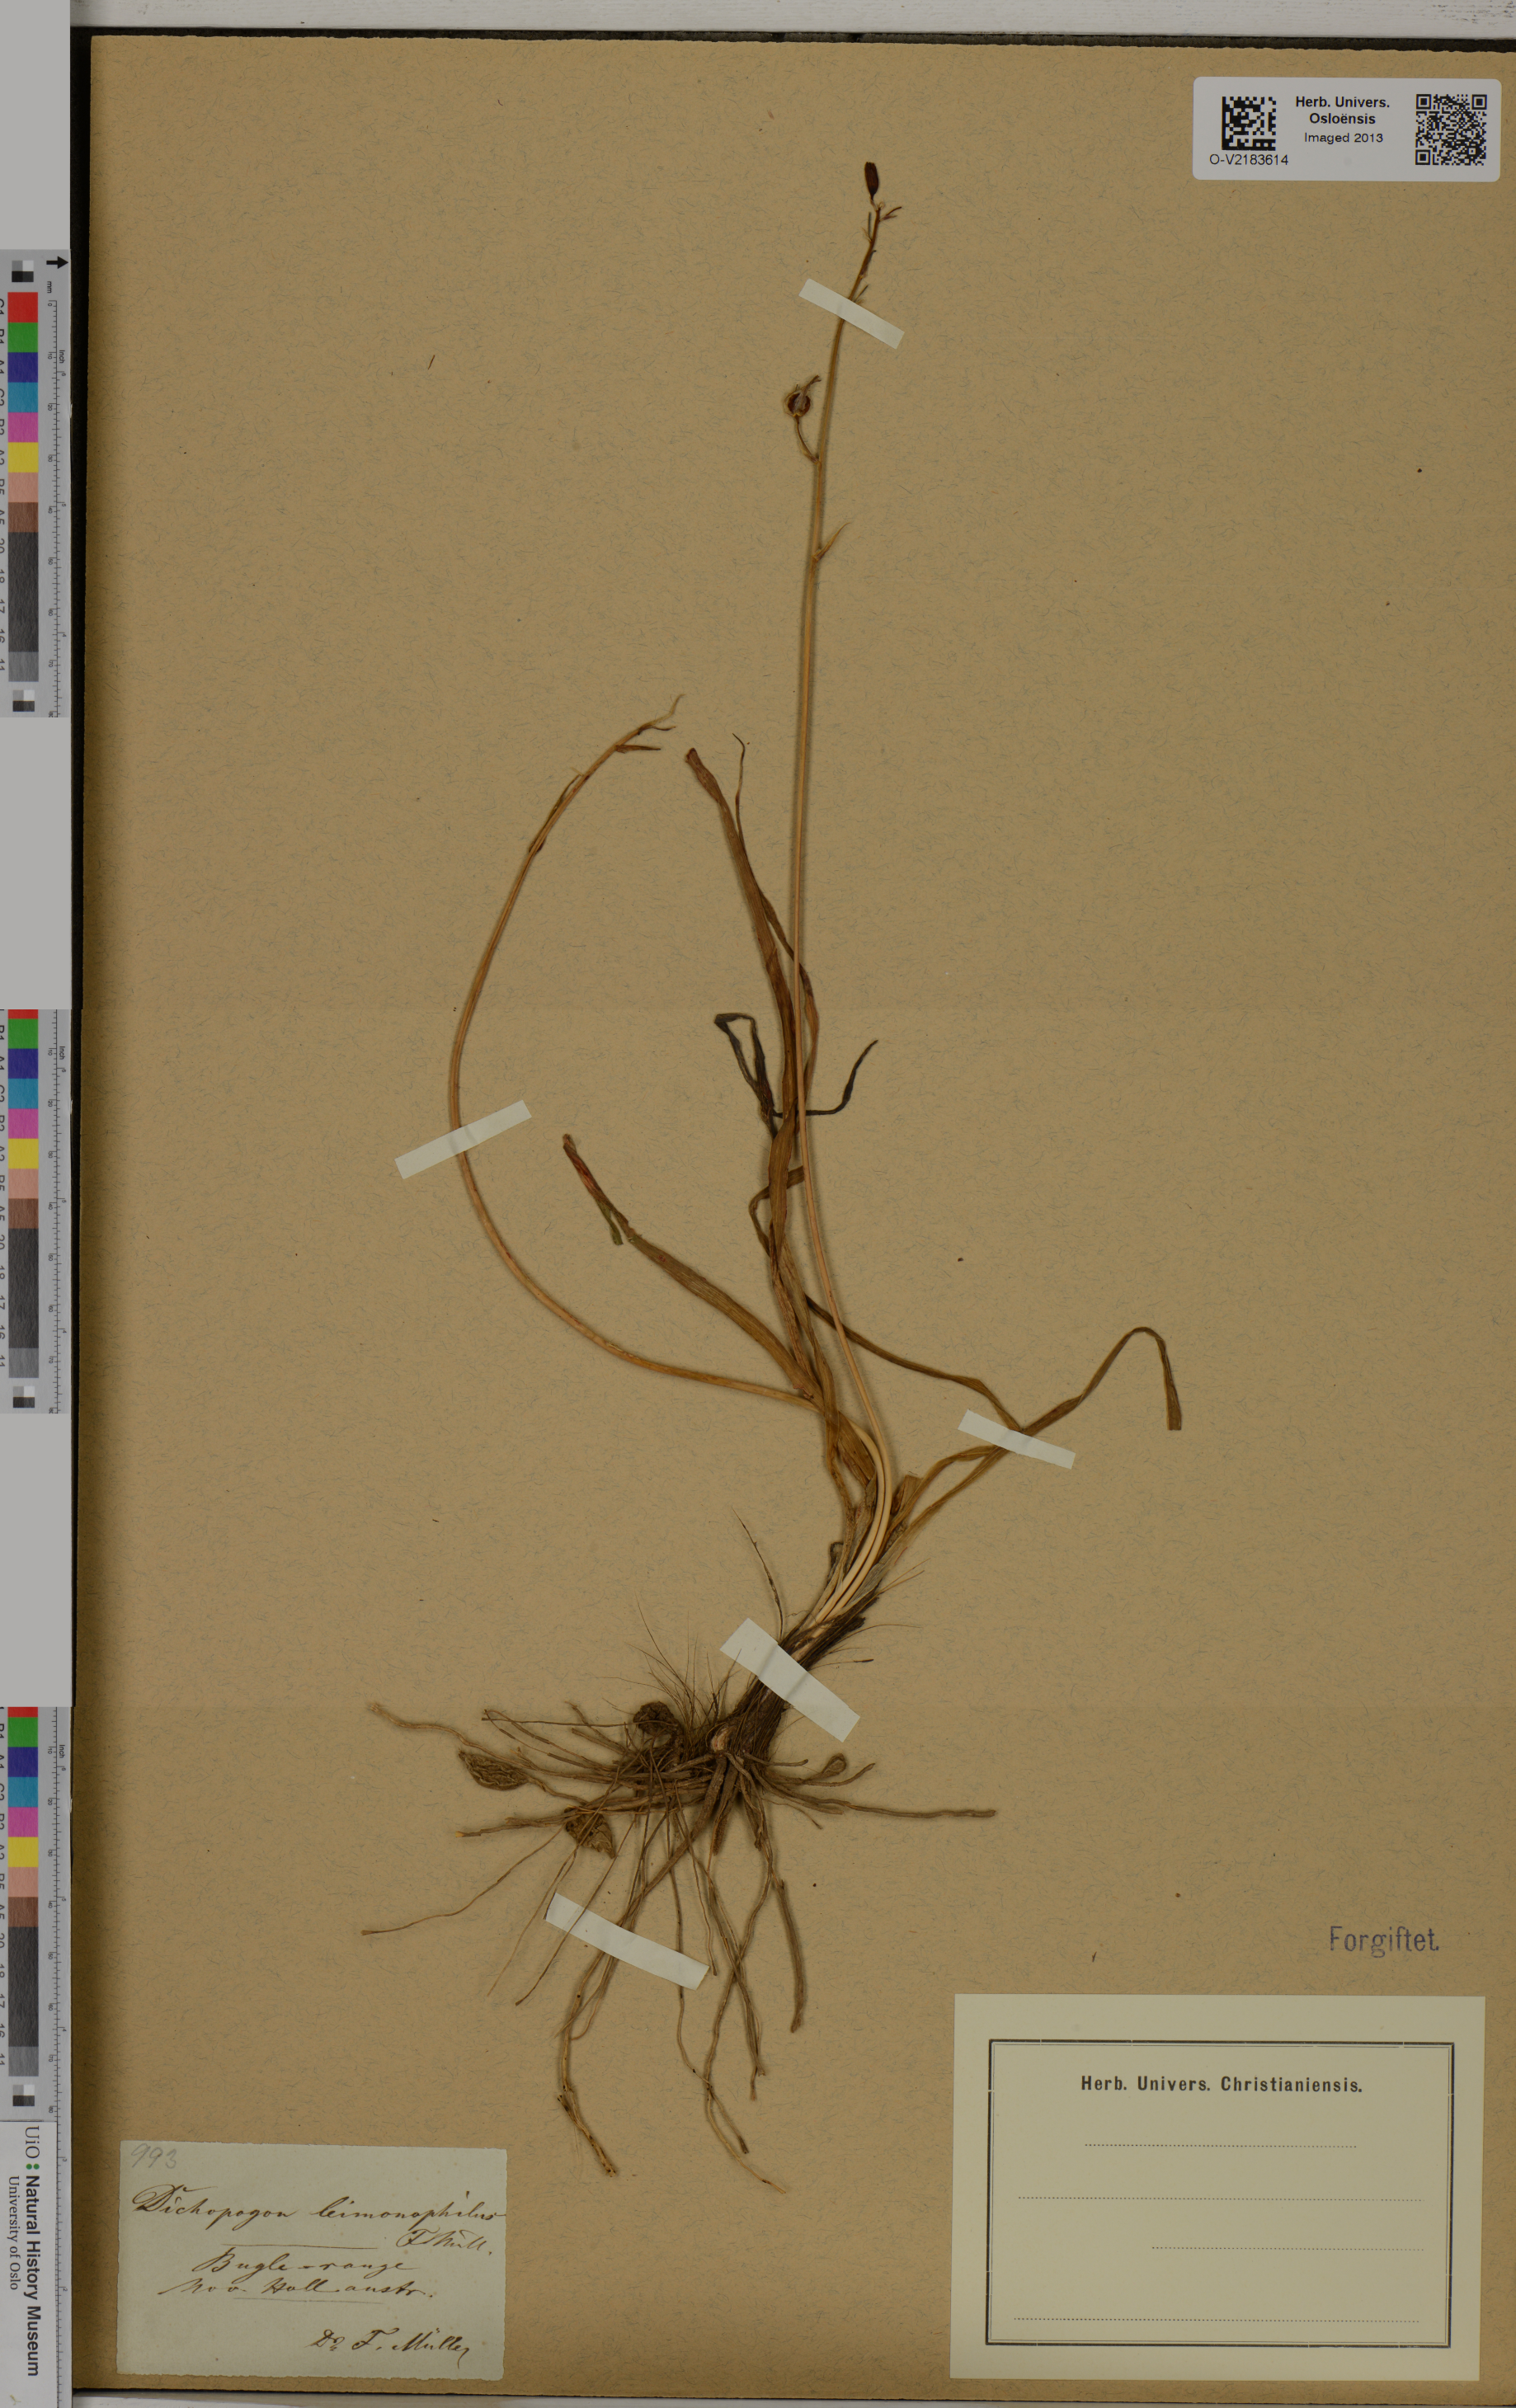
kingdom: Plantae
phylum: Tracheophyta
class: Liliopsida
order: Asparagales
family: Asparagaceae
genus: Arthropodium
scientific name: Arthropodium strictum
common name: Chocolate-lily
